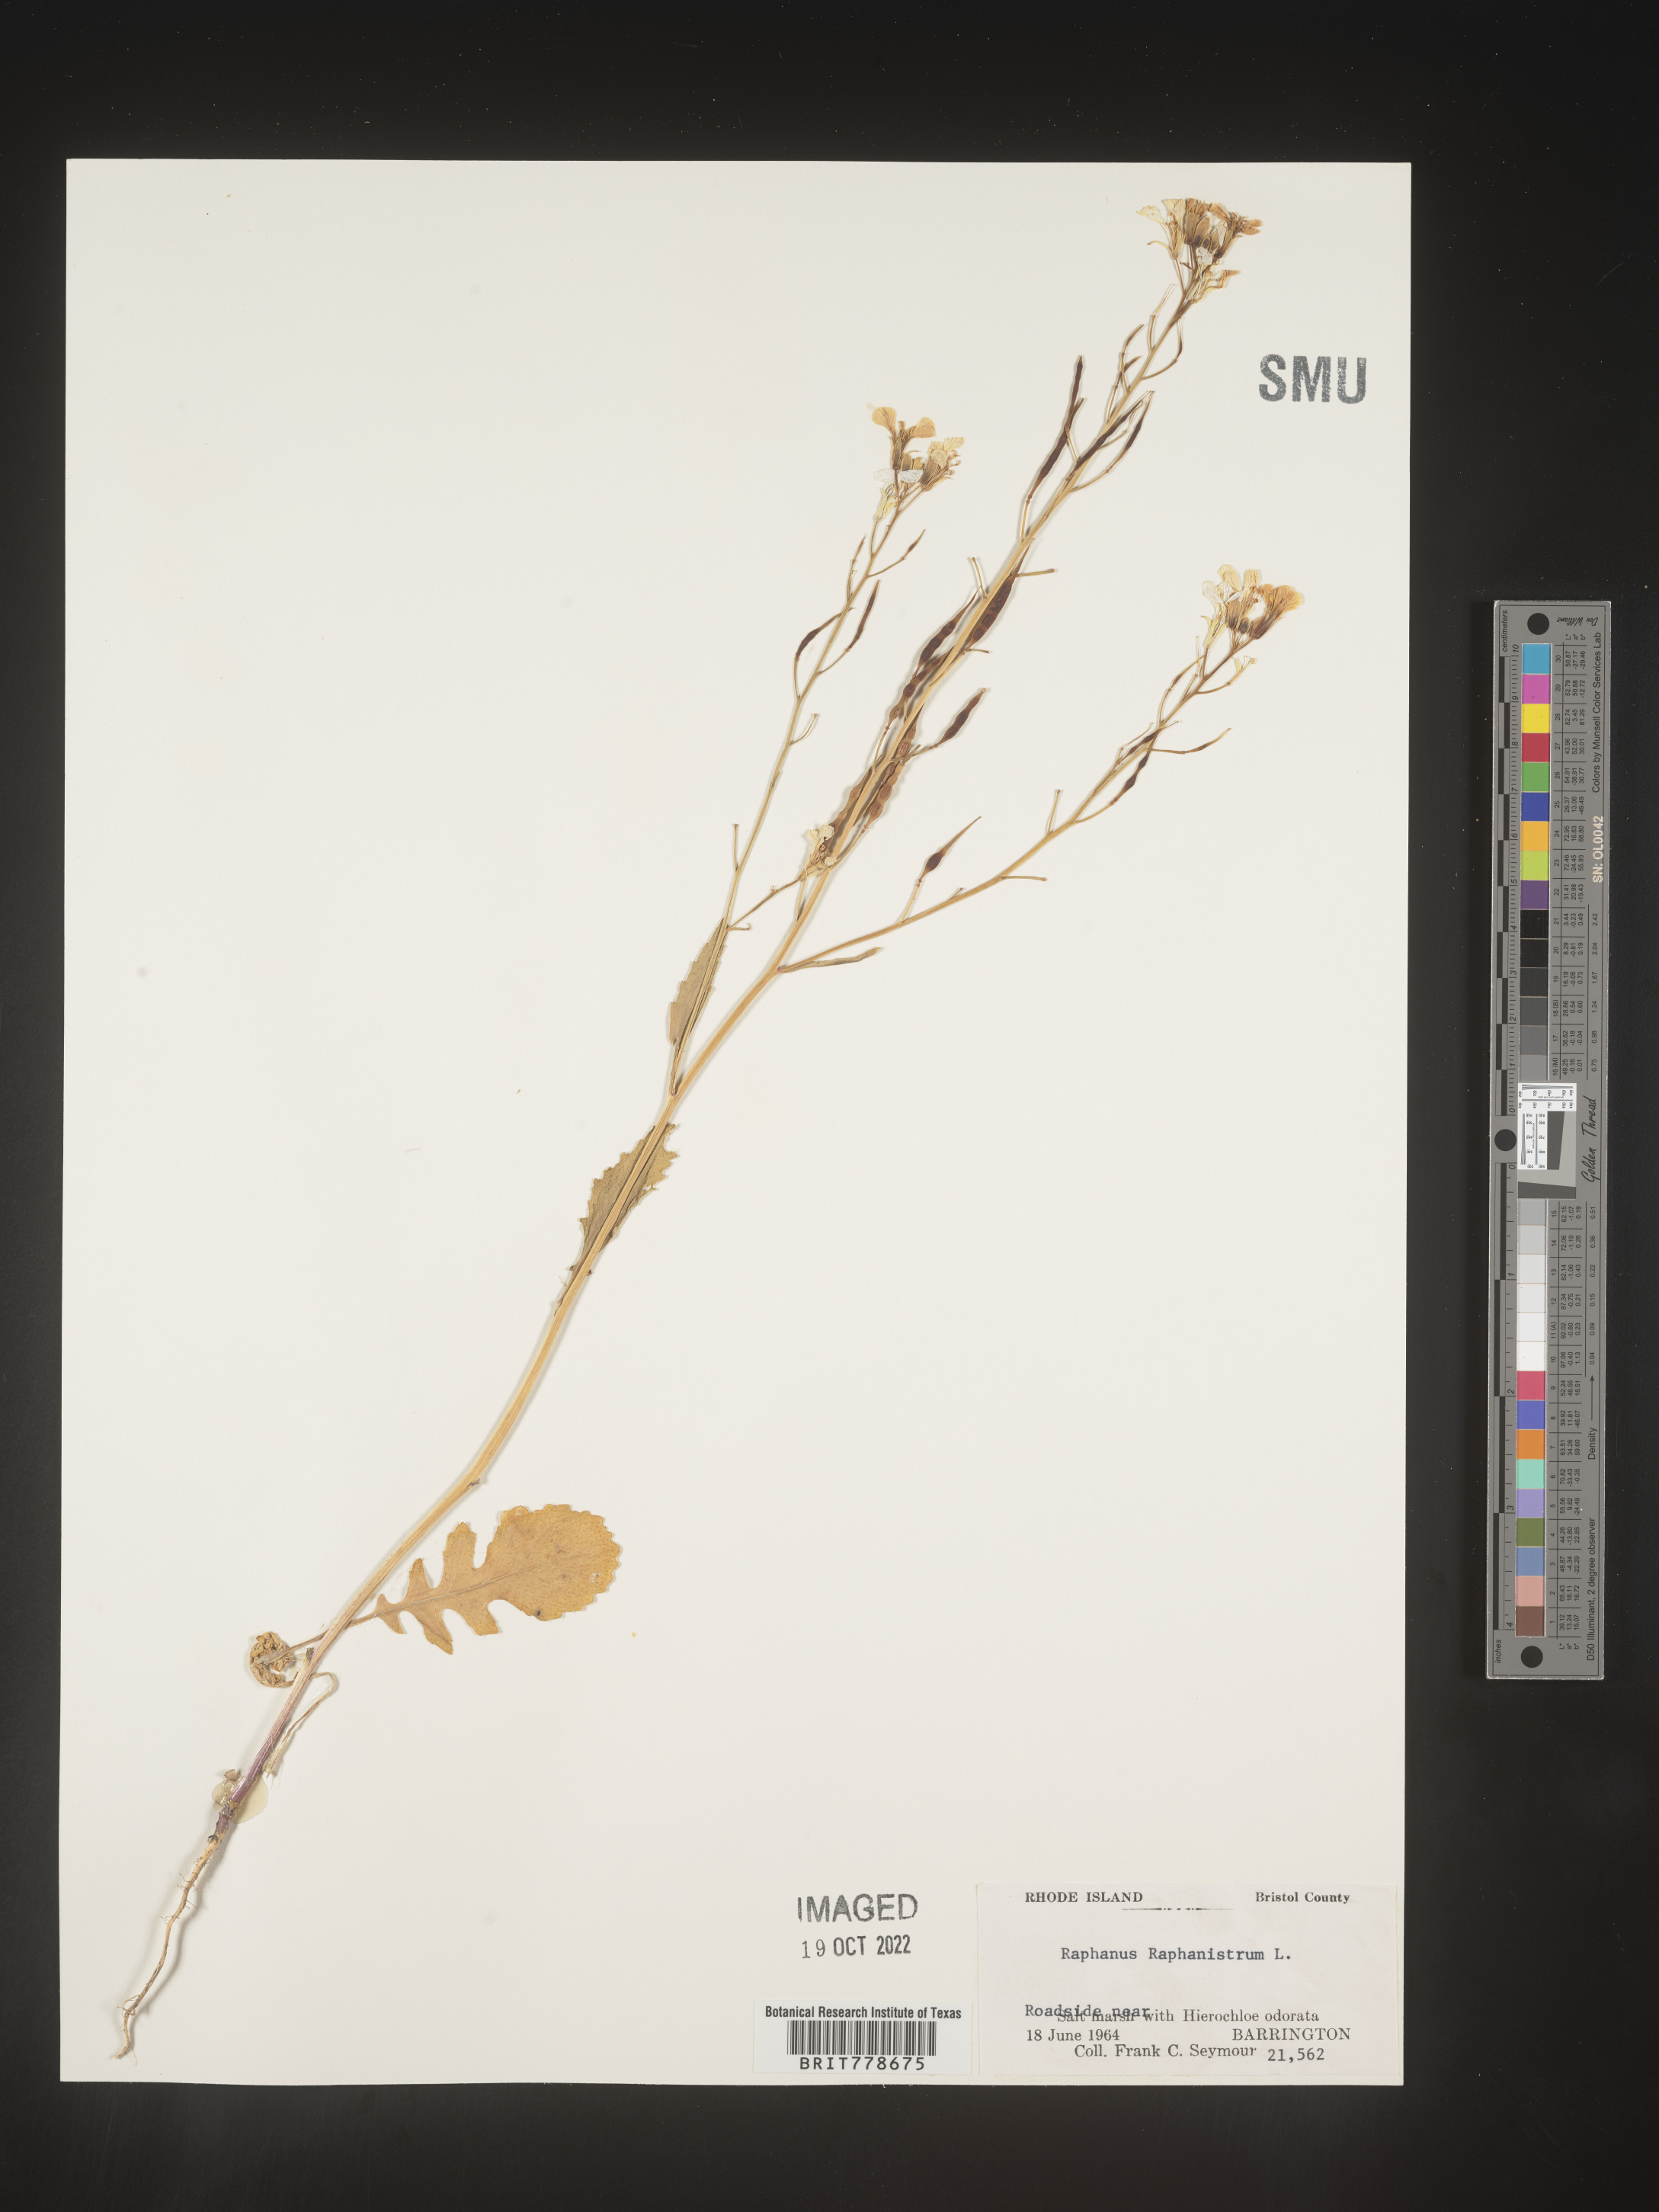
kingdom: Plantae
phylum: Tracheophyta
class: Magnoliopsida
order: Brassicales
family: Brassicaceae
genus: Raphanus
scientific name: Raphanus raphanistrum
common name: Wild radish
